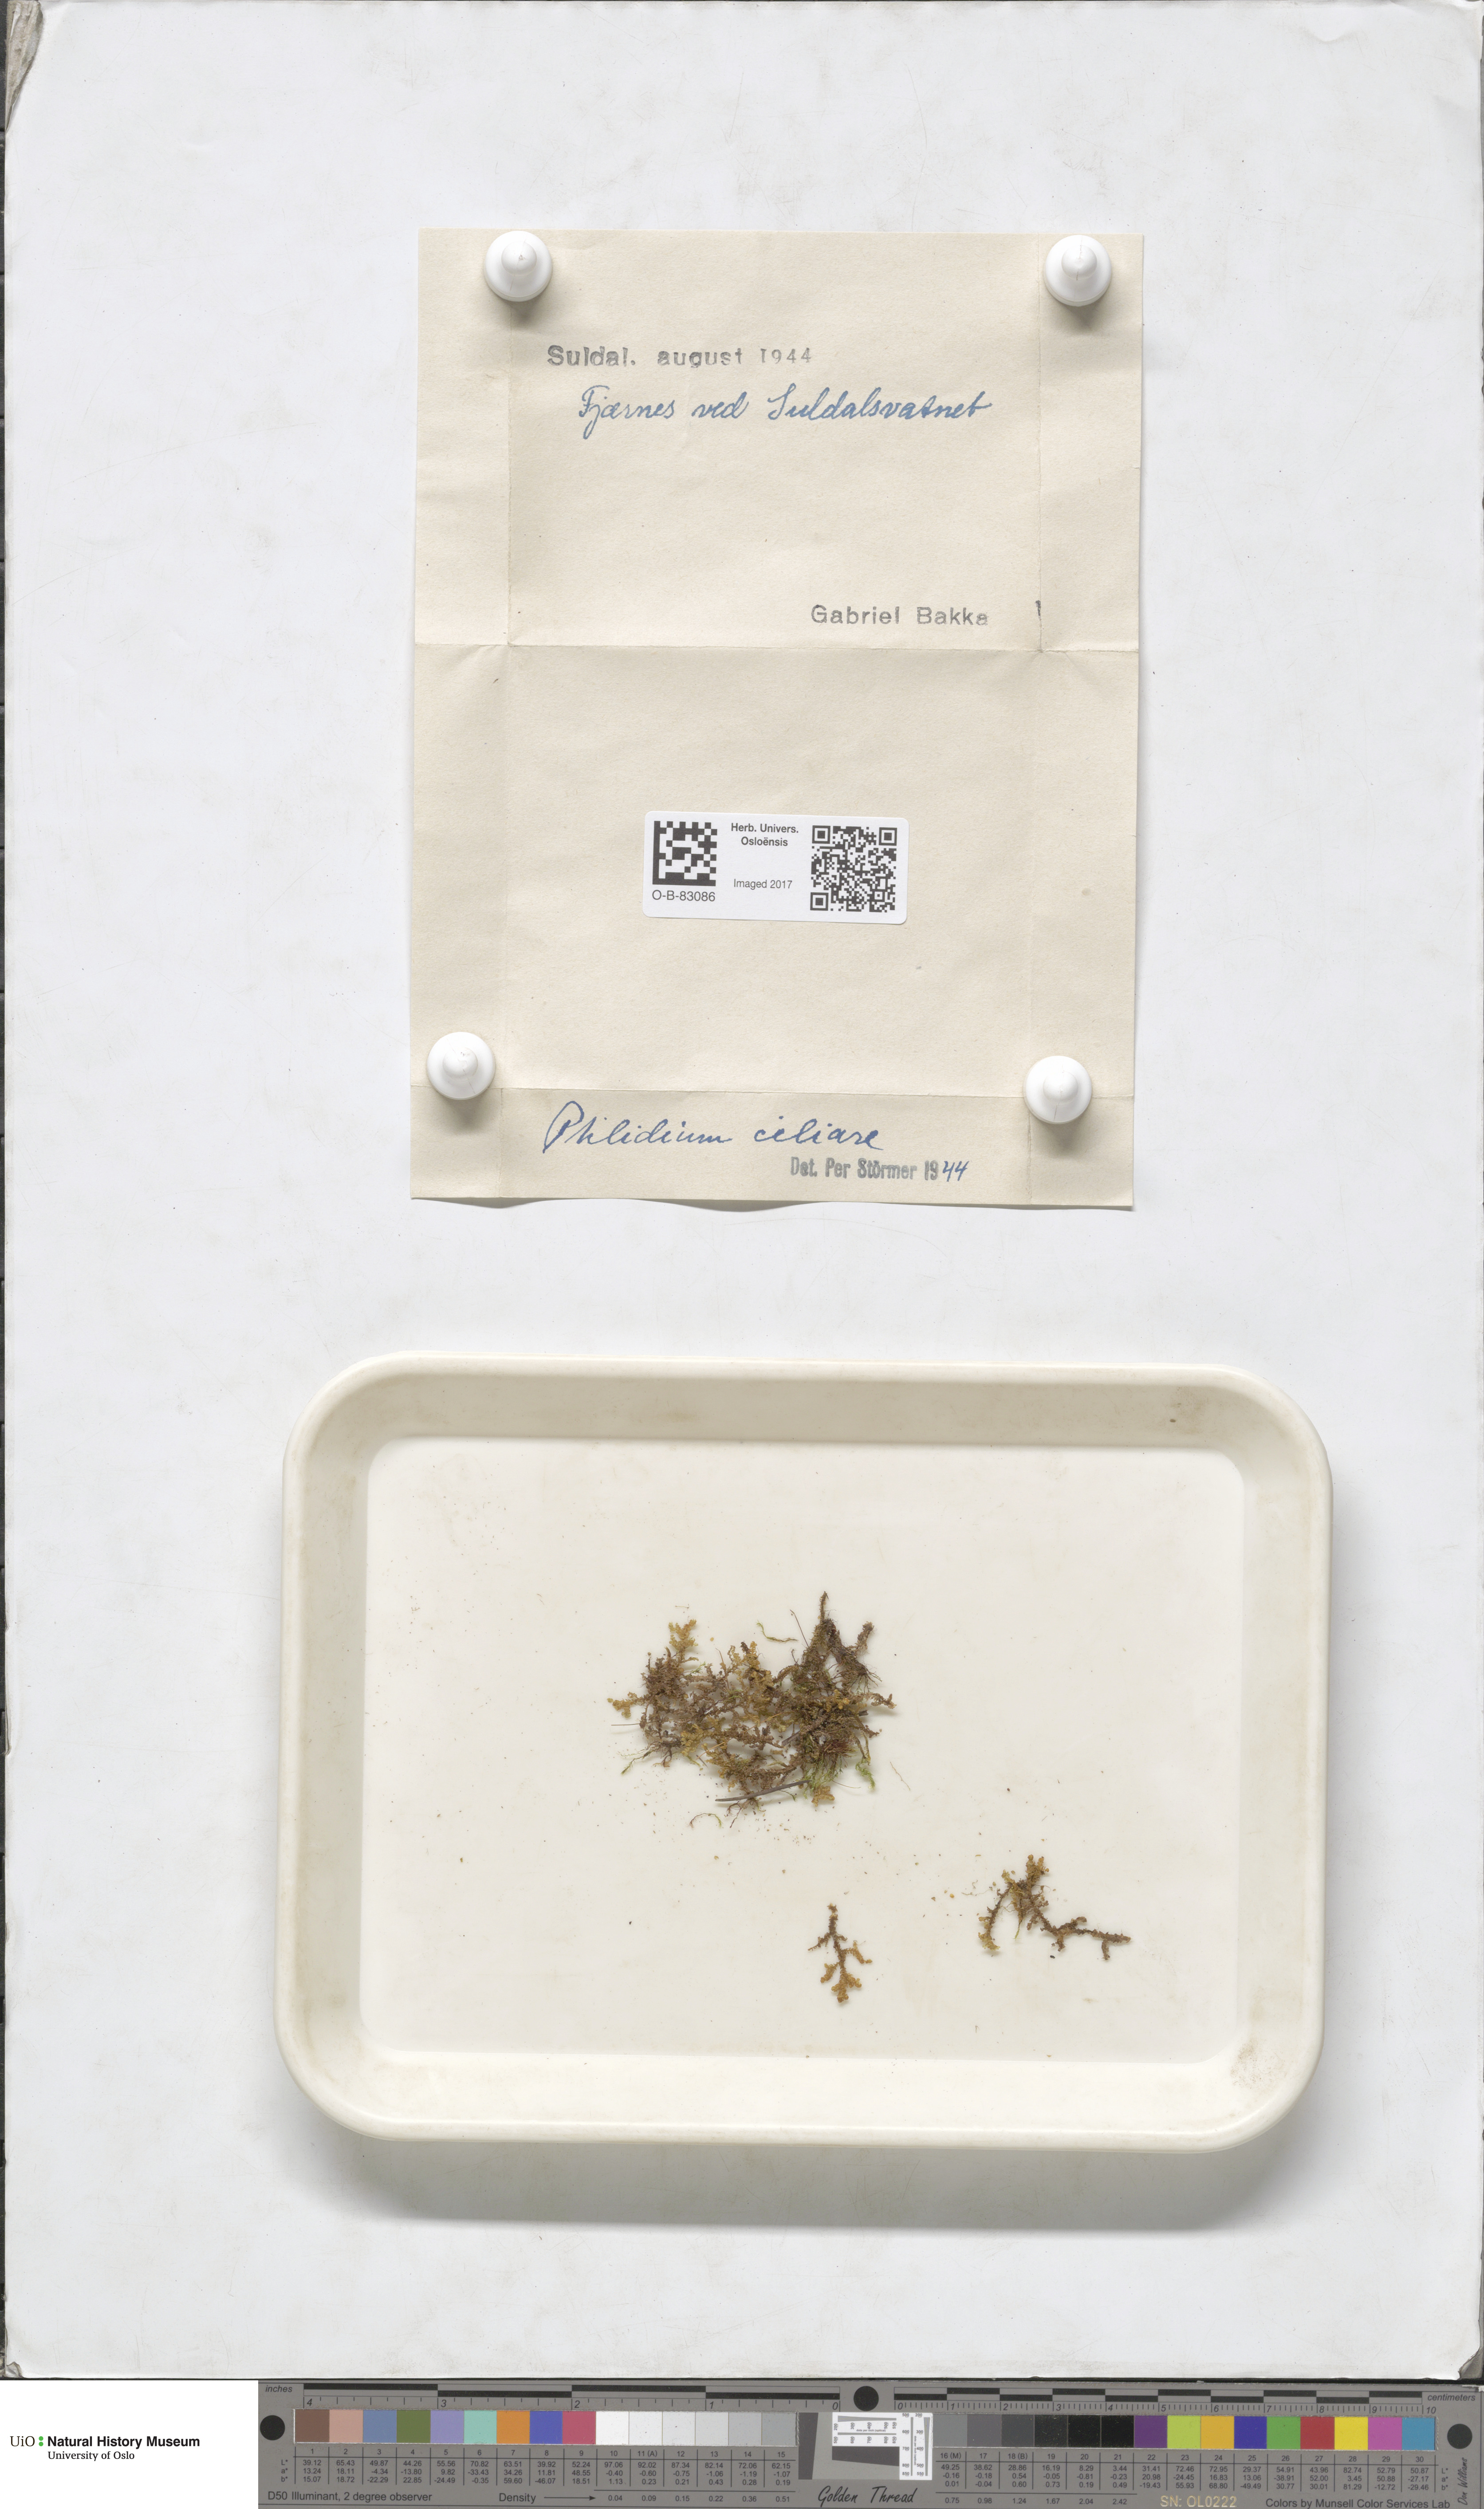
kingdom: Plantae
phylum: Marchantiophyta
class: Jungermanniopsida
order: Ptilidiales
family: Ptilidiaceae
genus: Ptilidium
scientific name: Ptilidium ciliare
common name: Ciliate fringewort
